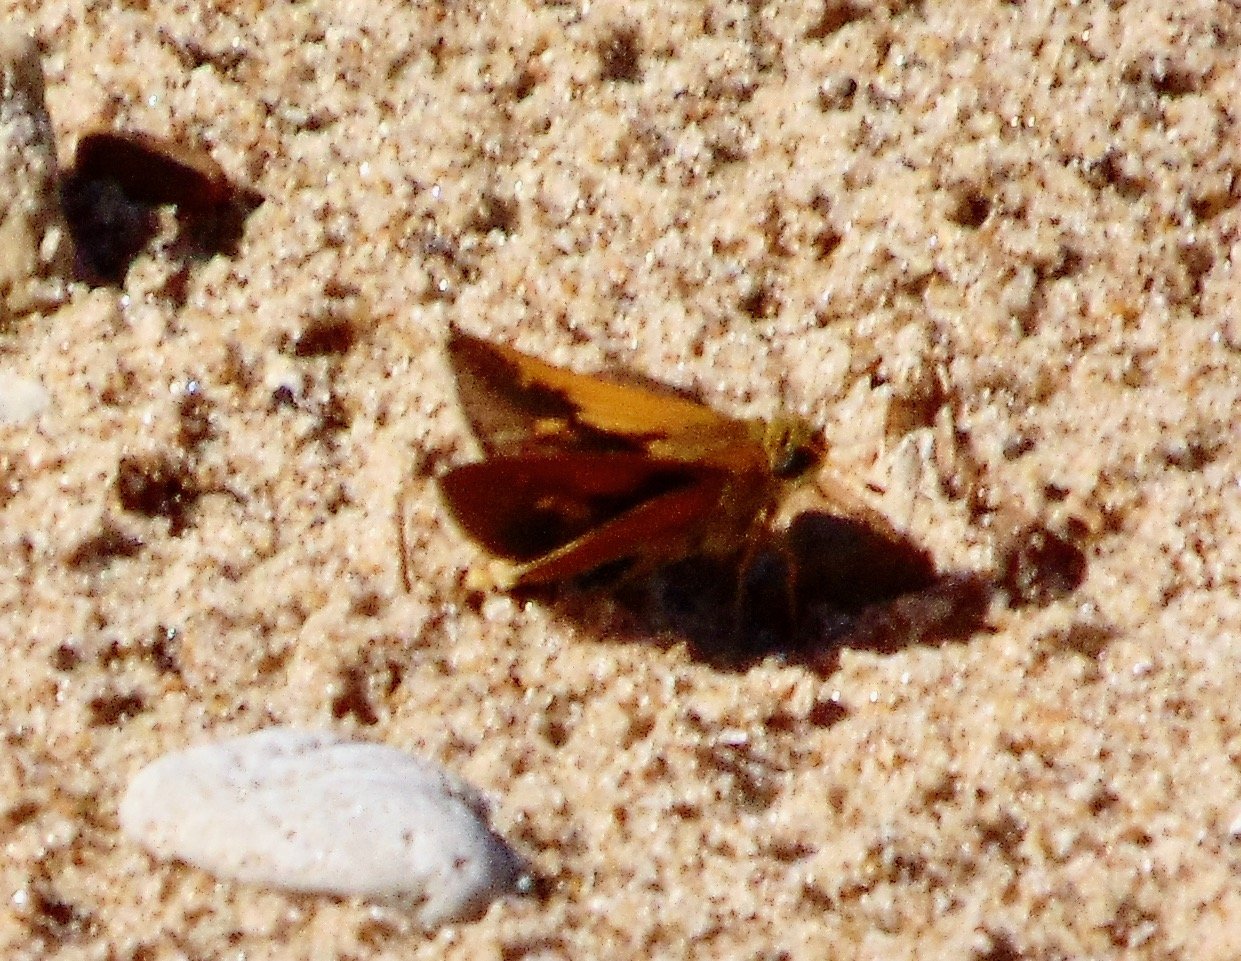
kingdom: Animalia
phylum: Arthropoda
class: Insecta
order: Lepidoptera
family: Hesperiidae
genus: Polites
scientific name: Polites themistocles
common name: Tawny-edged Skipper
